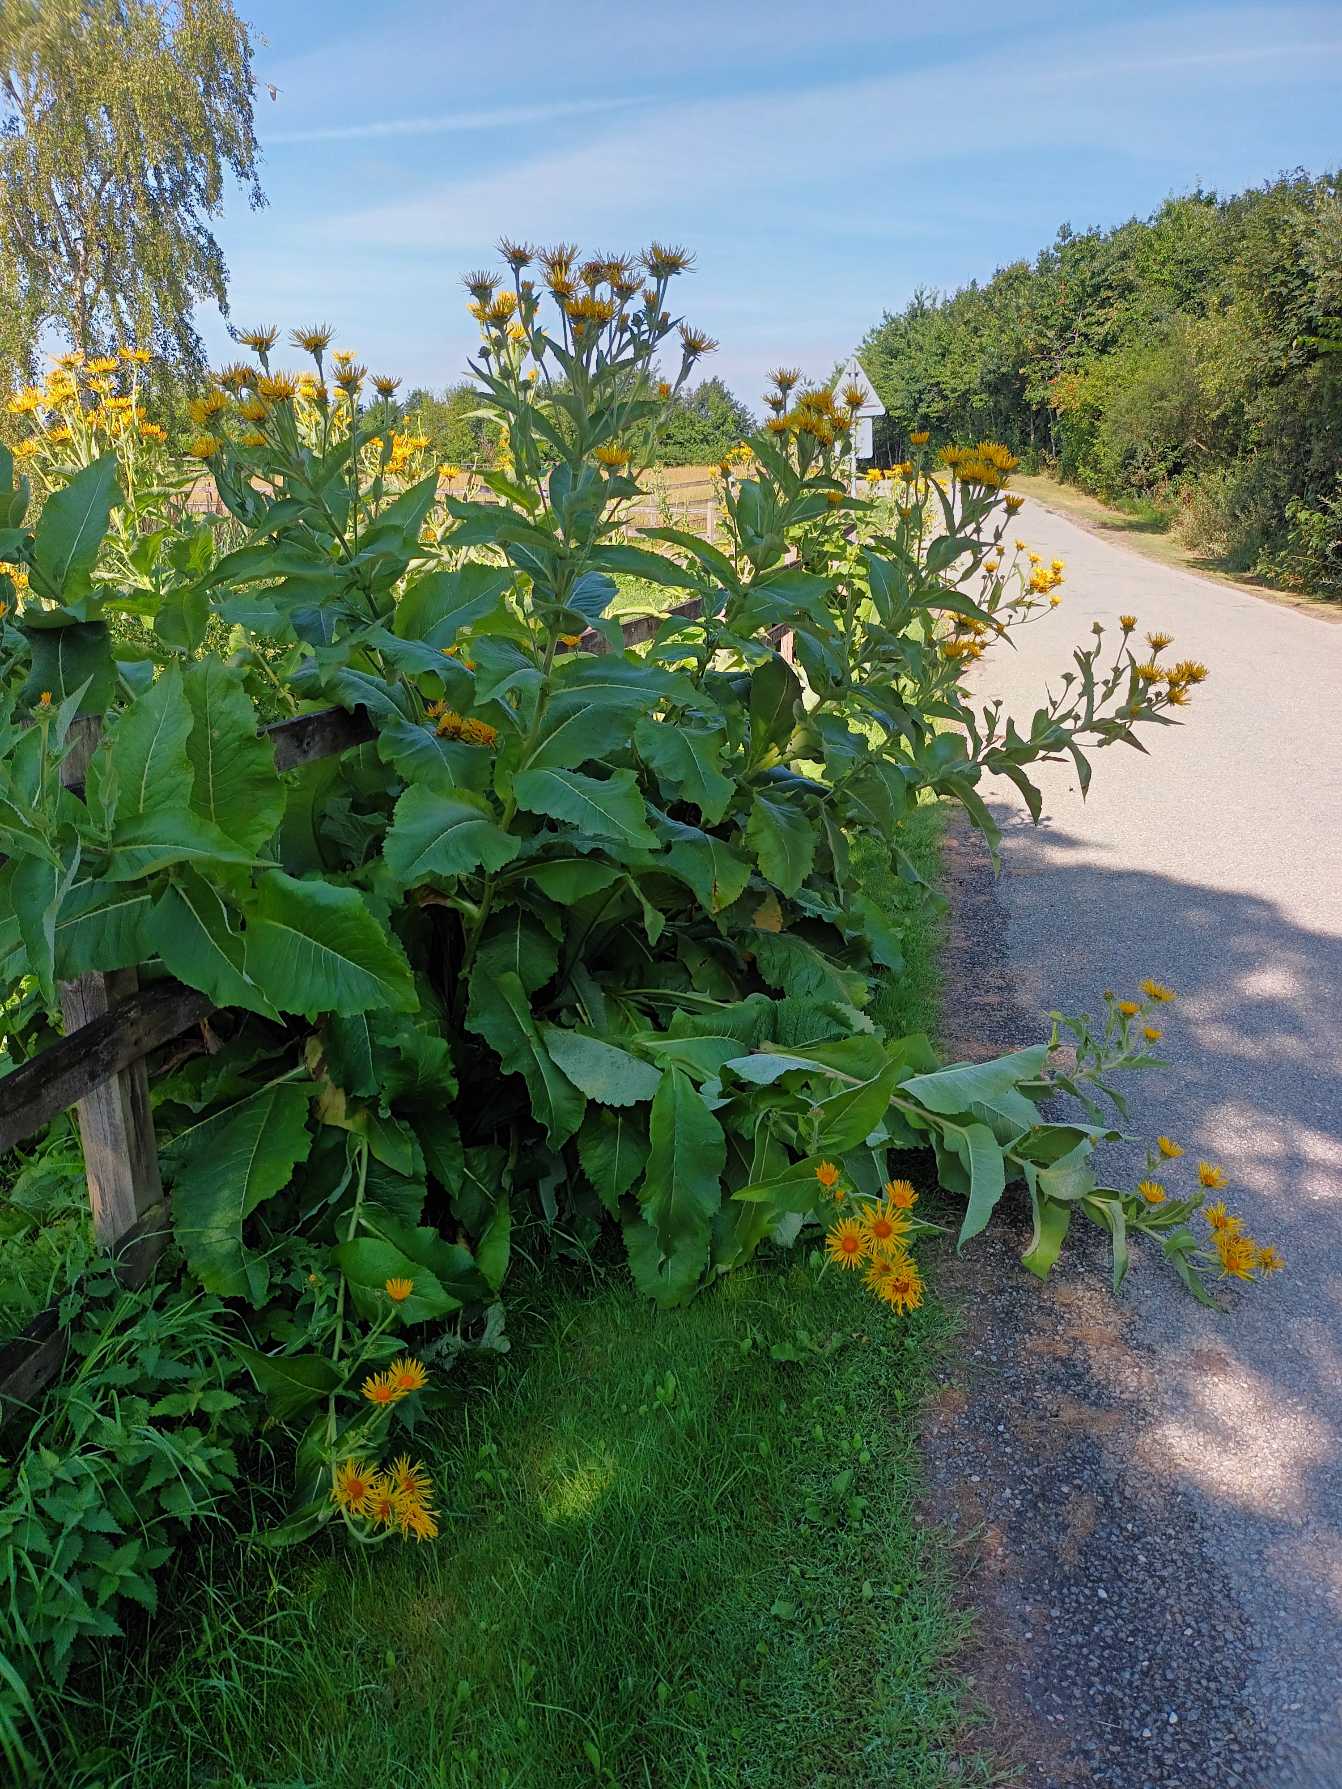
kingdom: Plantae
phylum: Tracheophyta
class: Magnoliopsida
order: Asterales
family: Asteraceae
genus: Inula
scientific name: Inula helenium
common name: Læge-alant
